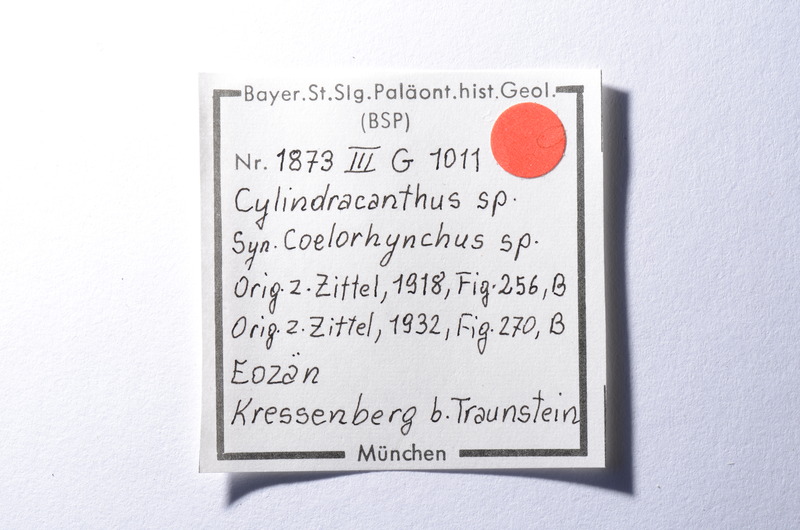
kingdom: Animalia
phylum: Chordata
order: Perciformes
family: Scombridae
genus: Cylindracanthus
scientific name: Cylindracanthus
